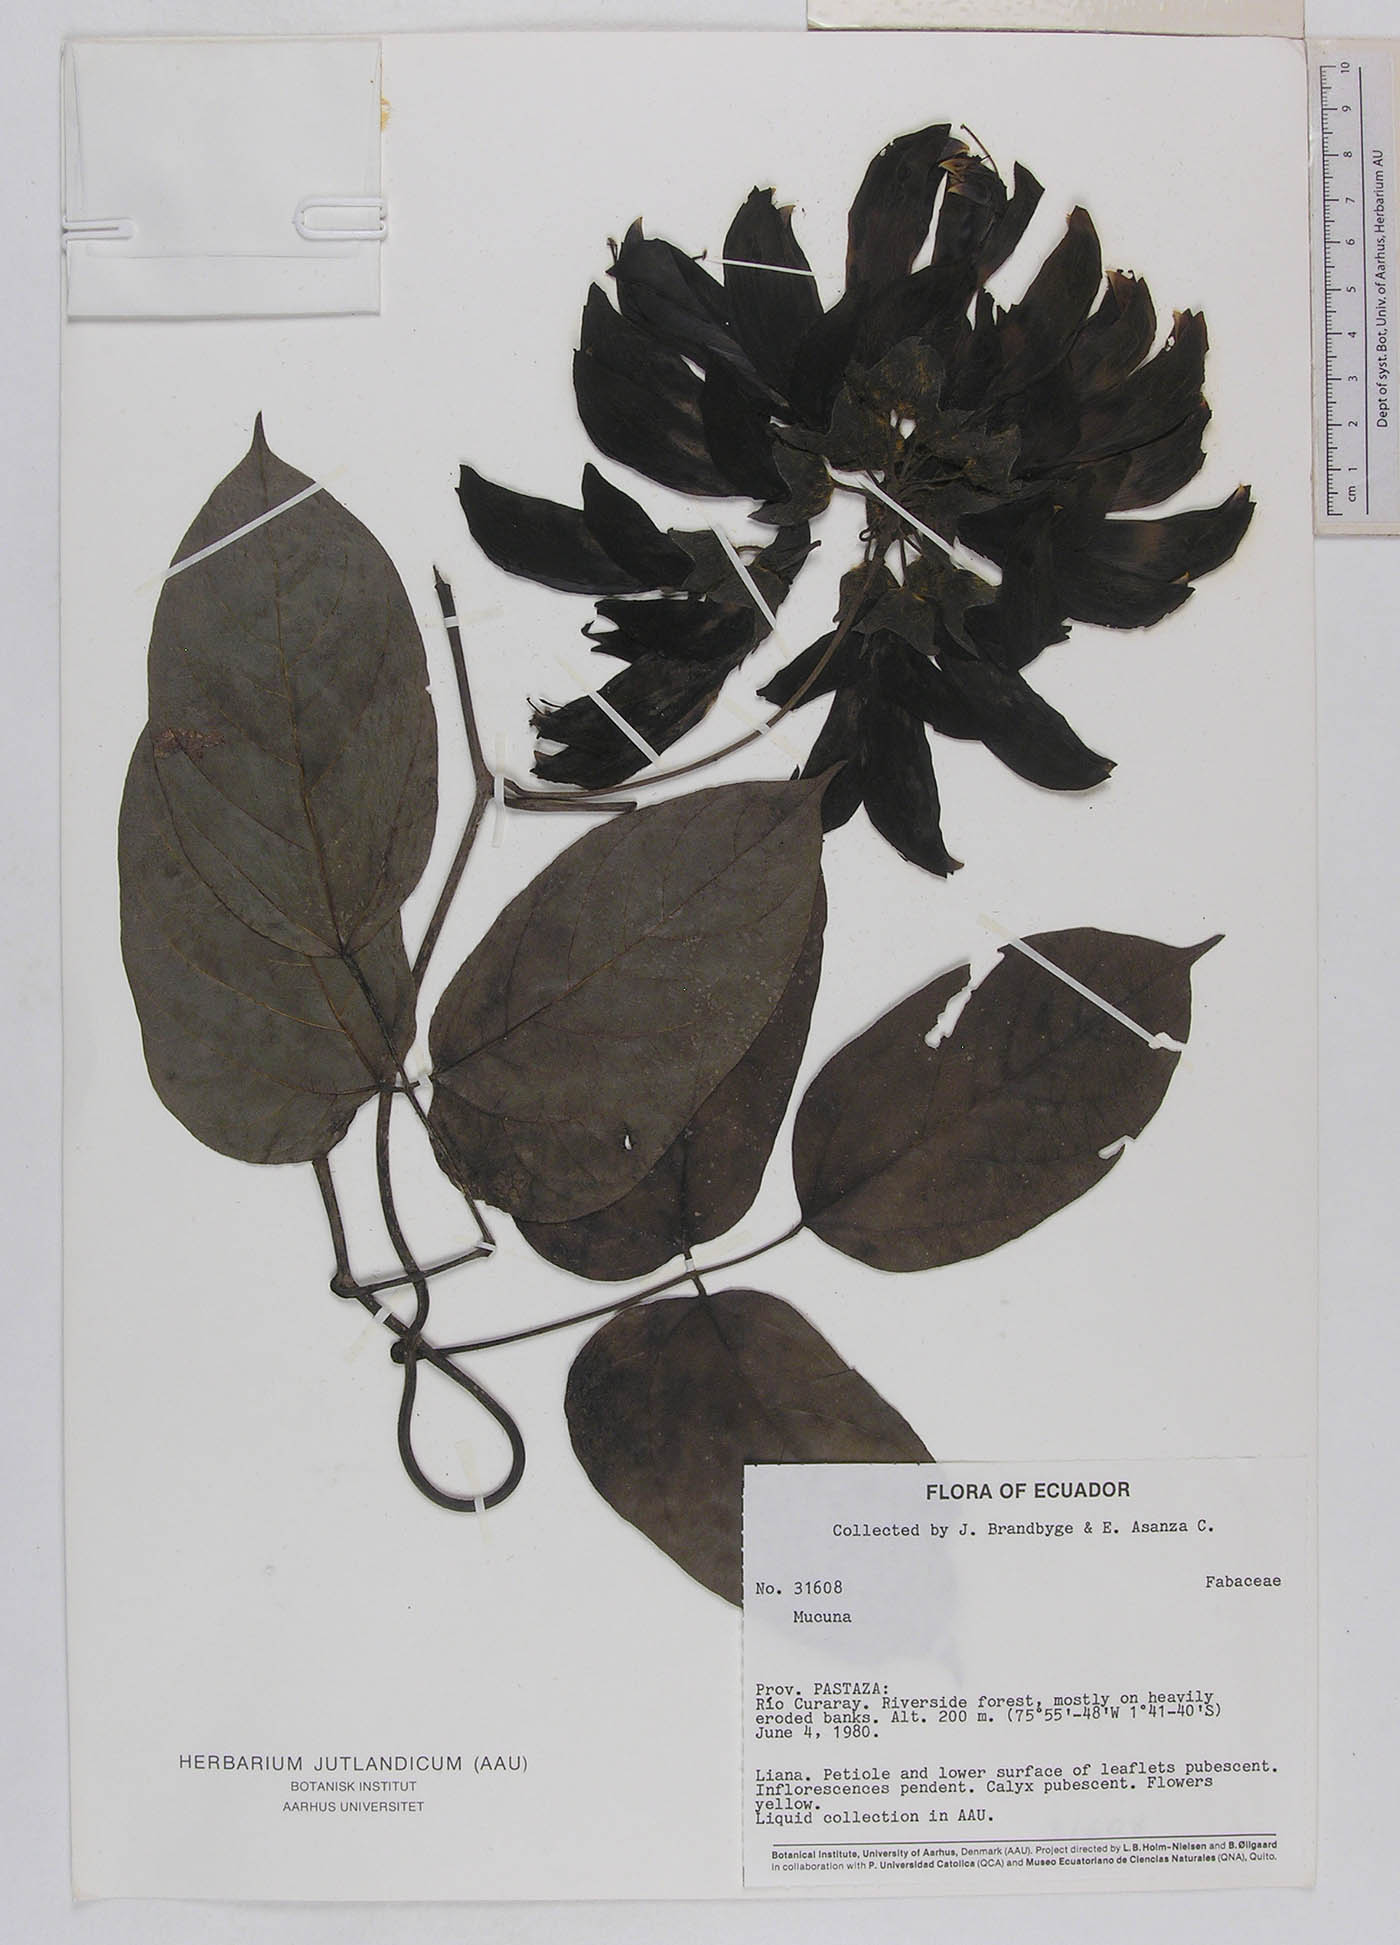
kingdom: Plantae
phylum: Tracheophyta
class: Magnoliopsida
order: Fabales
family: Fabaceae
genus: Mucuna
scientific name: Mucuna ecuatoriana
